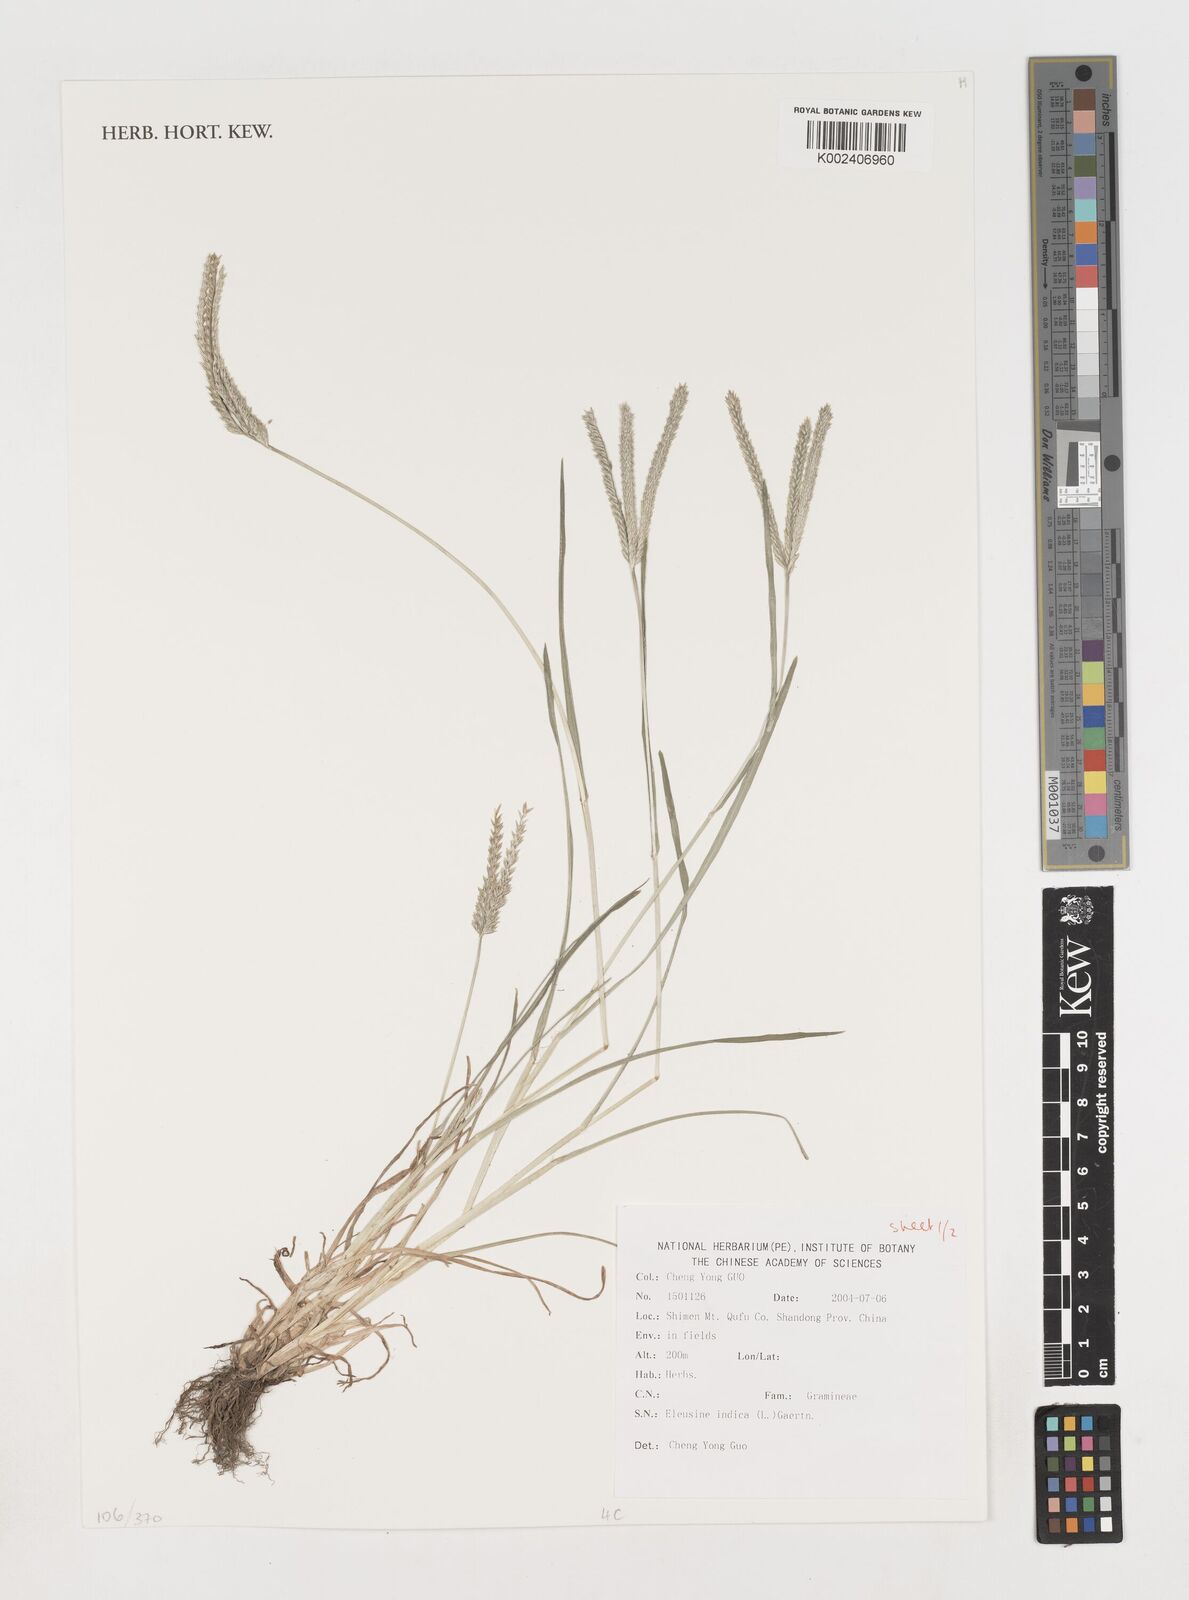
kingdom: Plantae
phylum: Tracheophyta
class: Liliopsida
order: Poales
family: Poaceae
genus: Eleusine
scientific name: Eleusine indica
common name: Yard-grass
